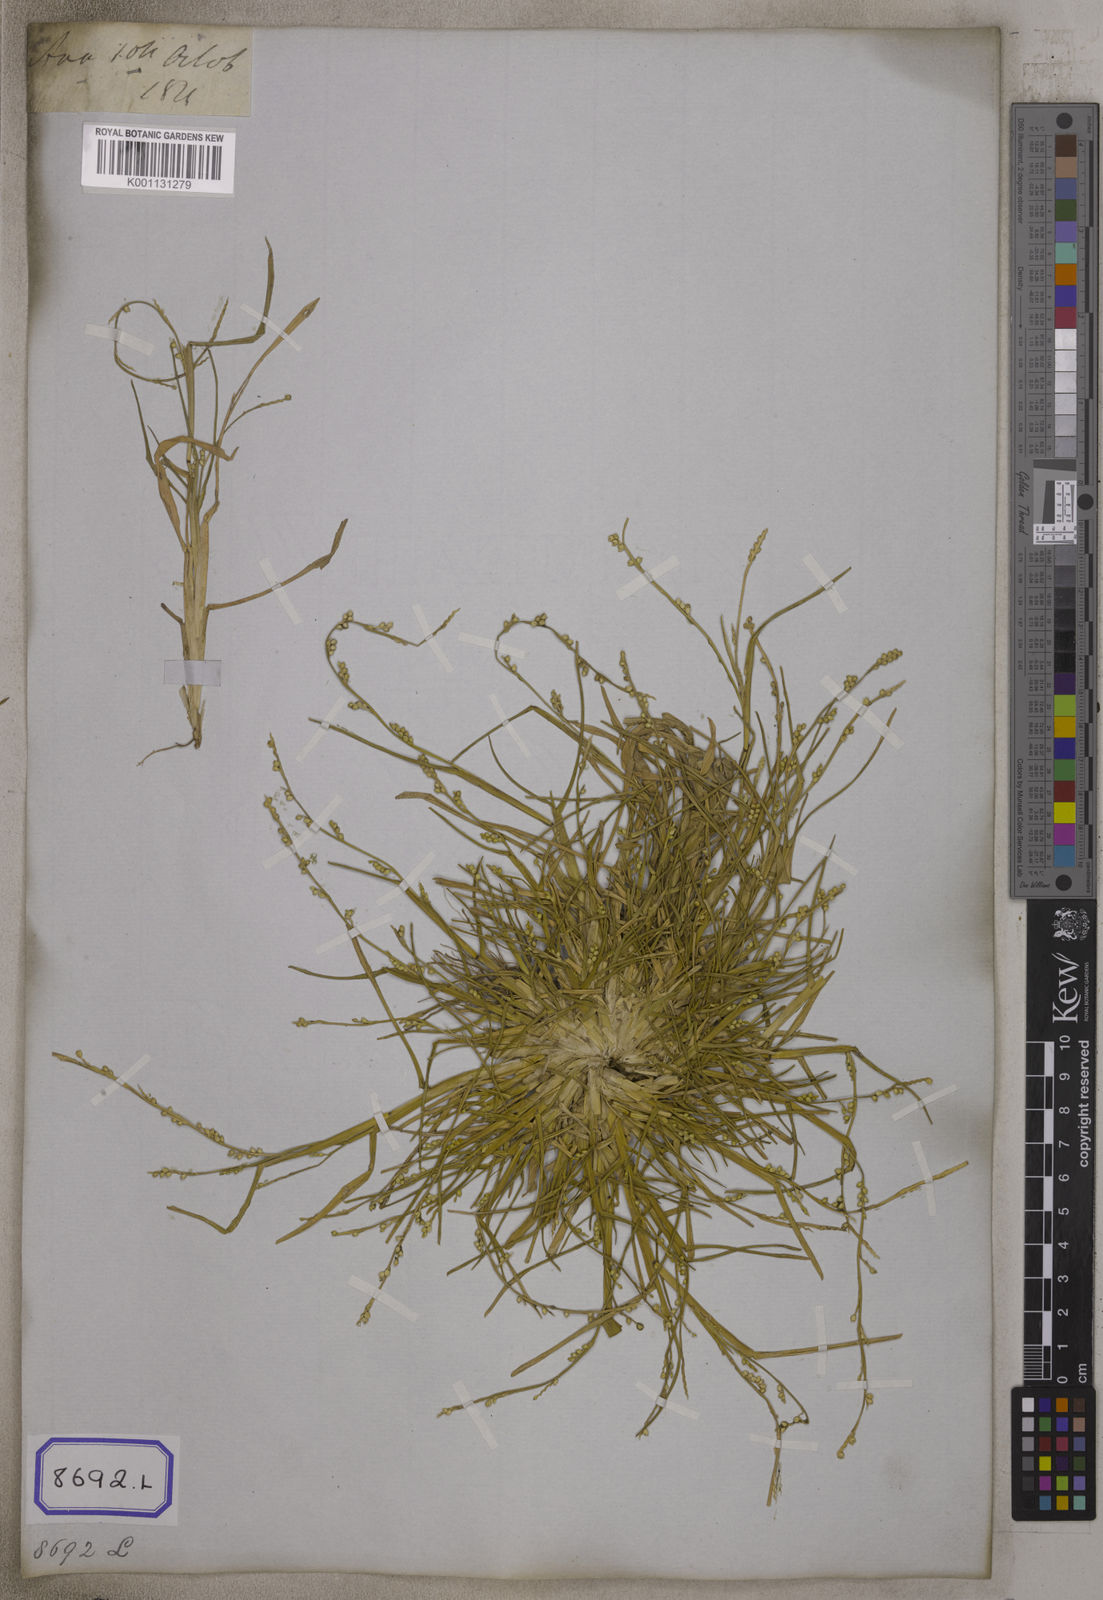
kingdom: Plantae
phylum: Tracheophyta
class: Liliopsida
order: Poales
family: Poaceae
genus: Setaria
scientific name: Setaria flavida
